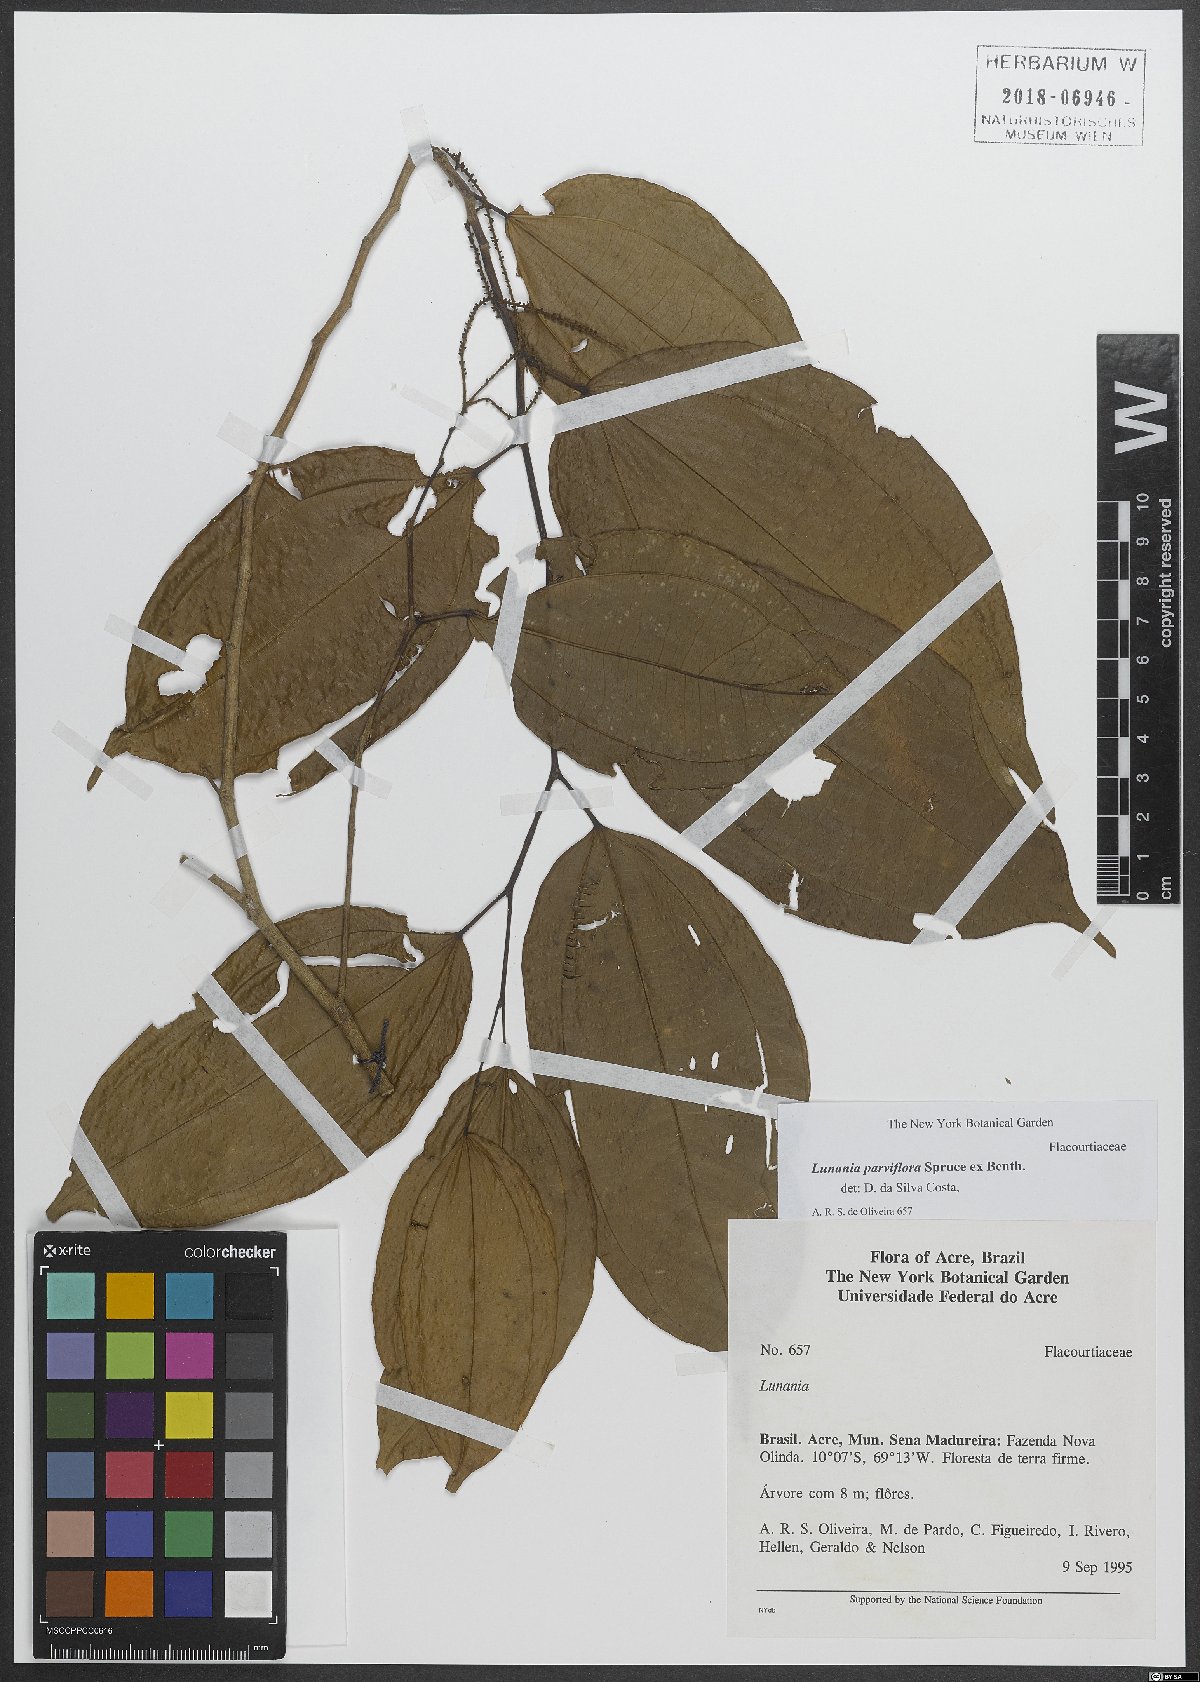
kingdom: Plantae
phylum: Tracheophyta
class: Magnoliopsida
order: Malpighiales
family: Salicaceae
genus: Lunania
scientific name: Lunania parviflora
